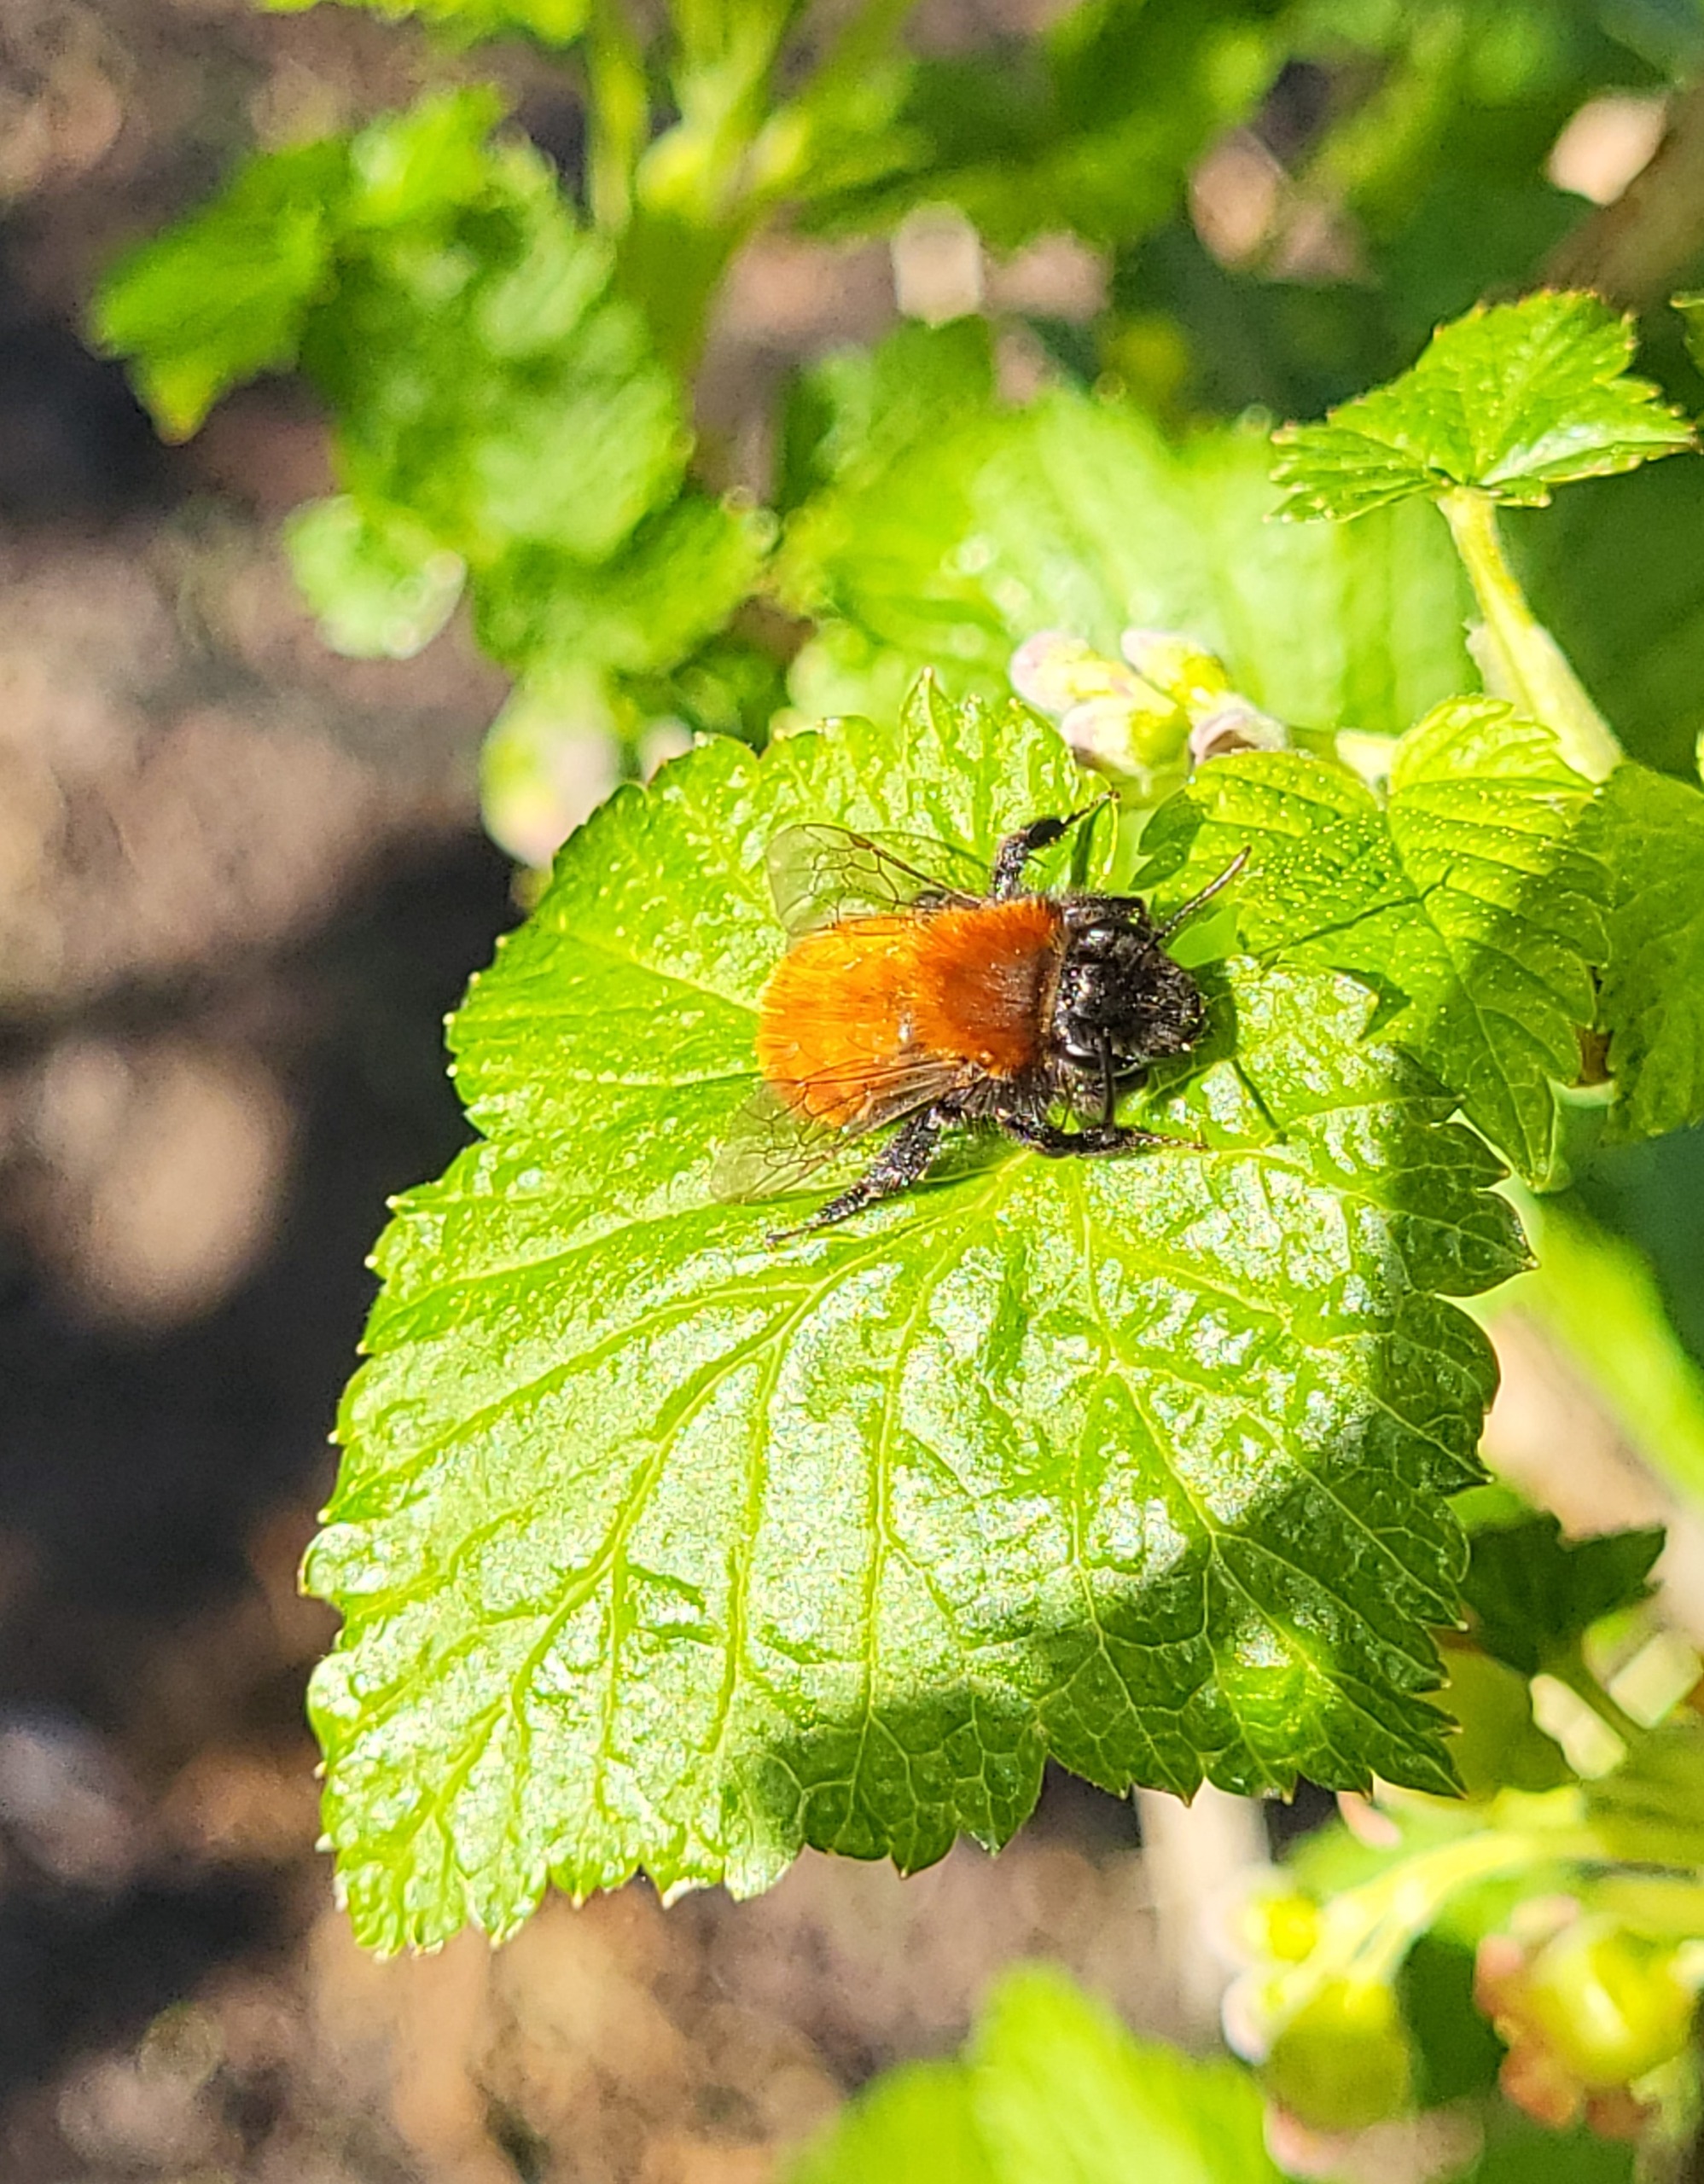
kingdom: Animalia
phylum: Arthropoda
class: Insecta
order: Hymenoptera
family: Andrenidae
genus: Andrena
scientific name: Andrena fulva
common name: Rødpelset jordbi
